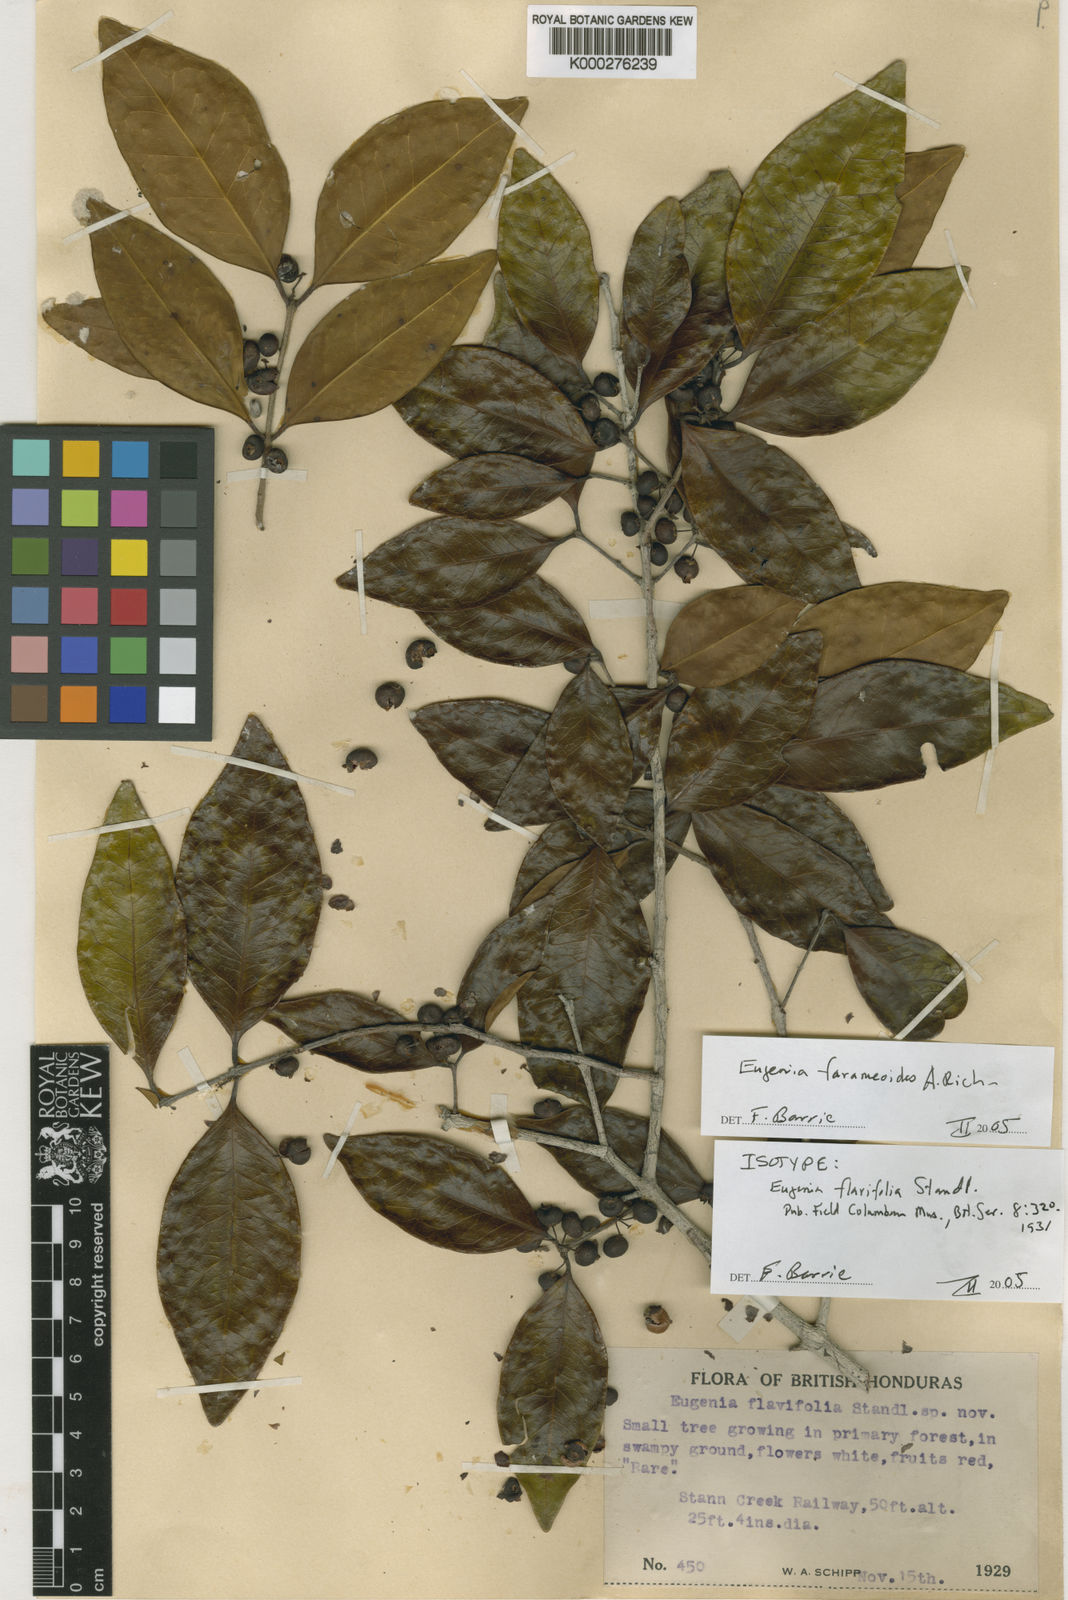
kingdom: Plantae
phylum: Tracheophyta
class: Magnoliopsida
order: Myrtales
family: Myrtaceae
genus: Eugenia
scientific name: Eugenia farameoides
